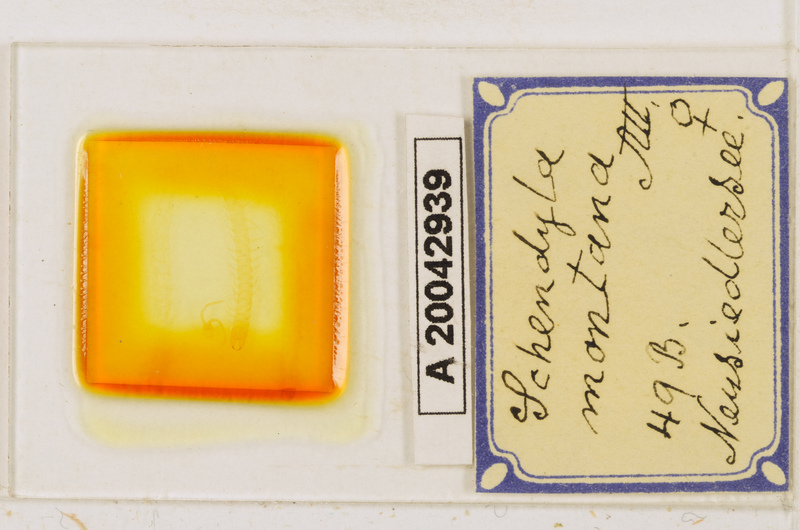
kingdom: Animalia
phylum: Arthropoda
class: Chilopoda
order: Geophilomorpha
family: Schendylidae
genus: Schendyla
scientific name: Schendyla montana
